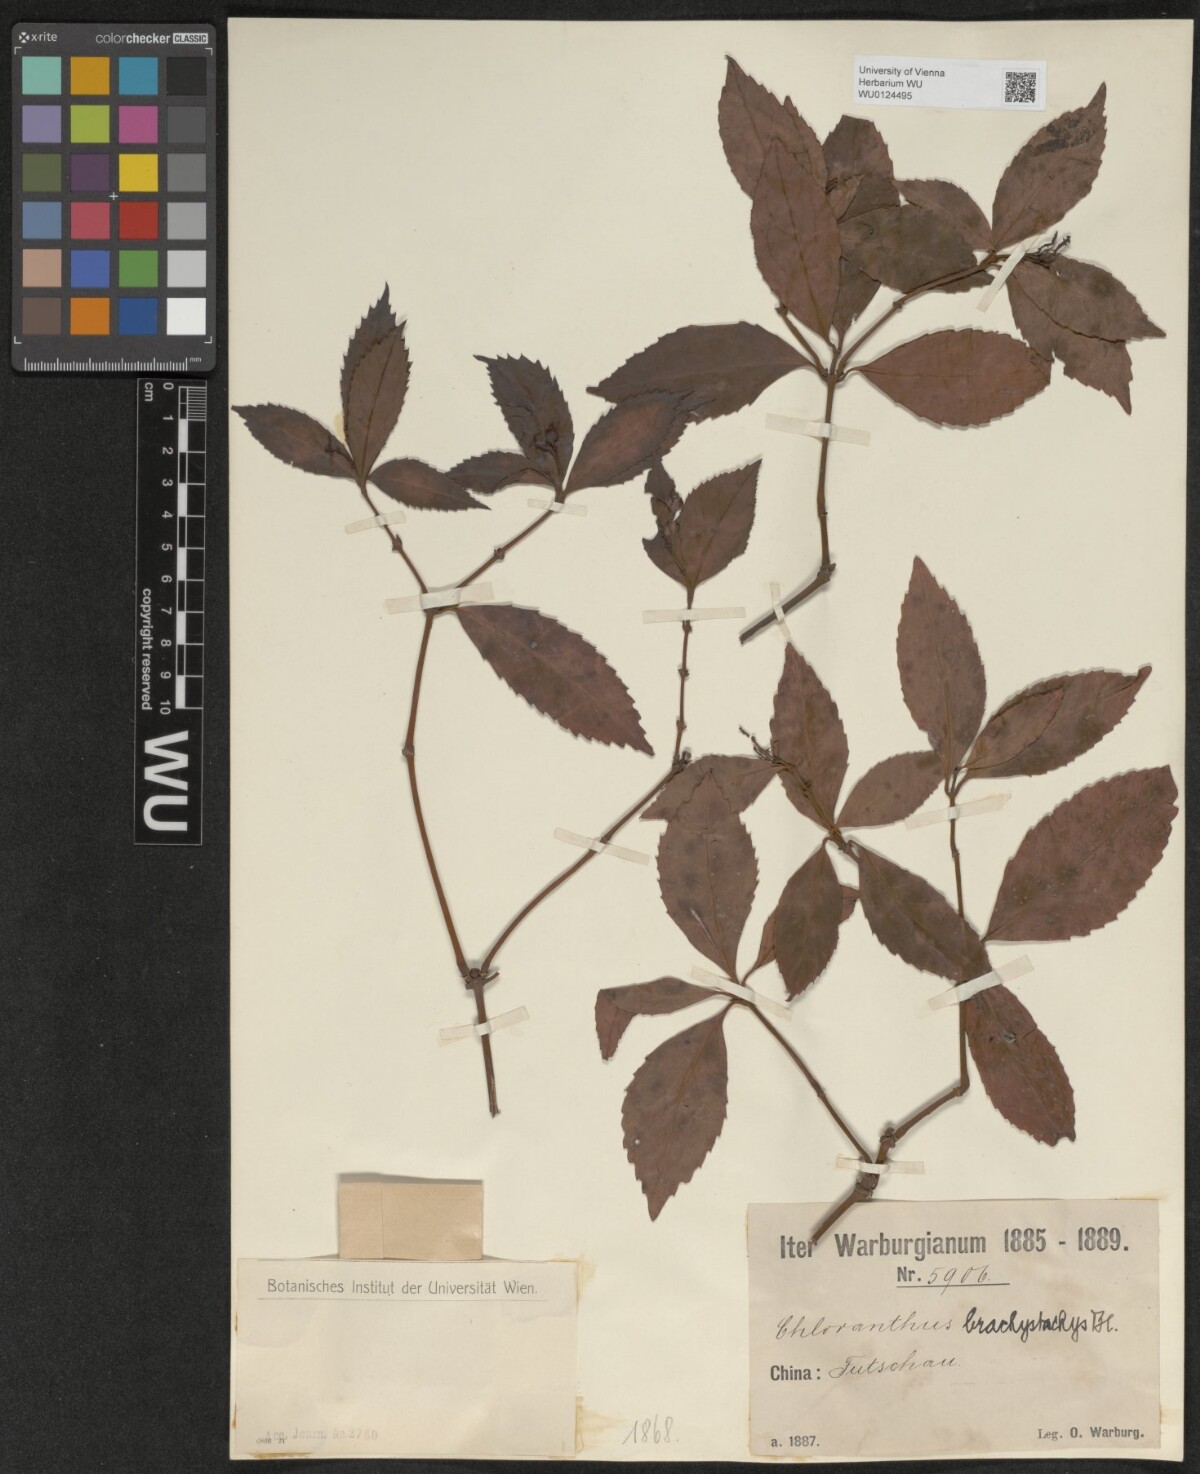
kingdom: Plantae
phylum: Tracheophyta
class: Magnoliopsida
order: Chloranthales
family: Chloranthaceae
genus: Sarcandra
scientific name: Sarcandra glabra
